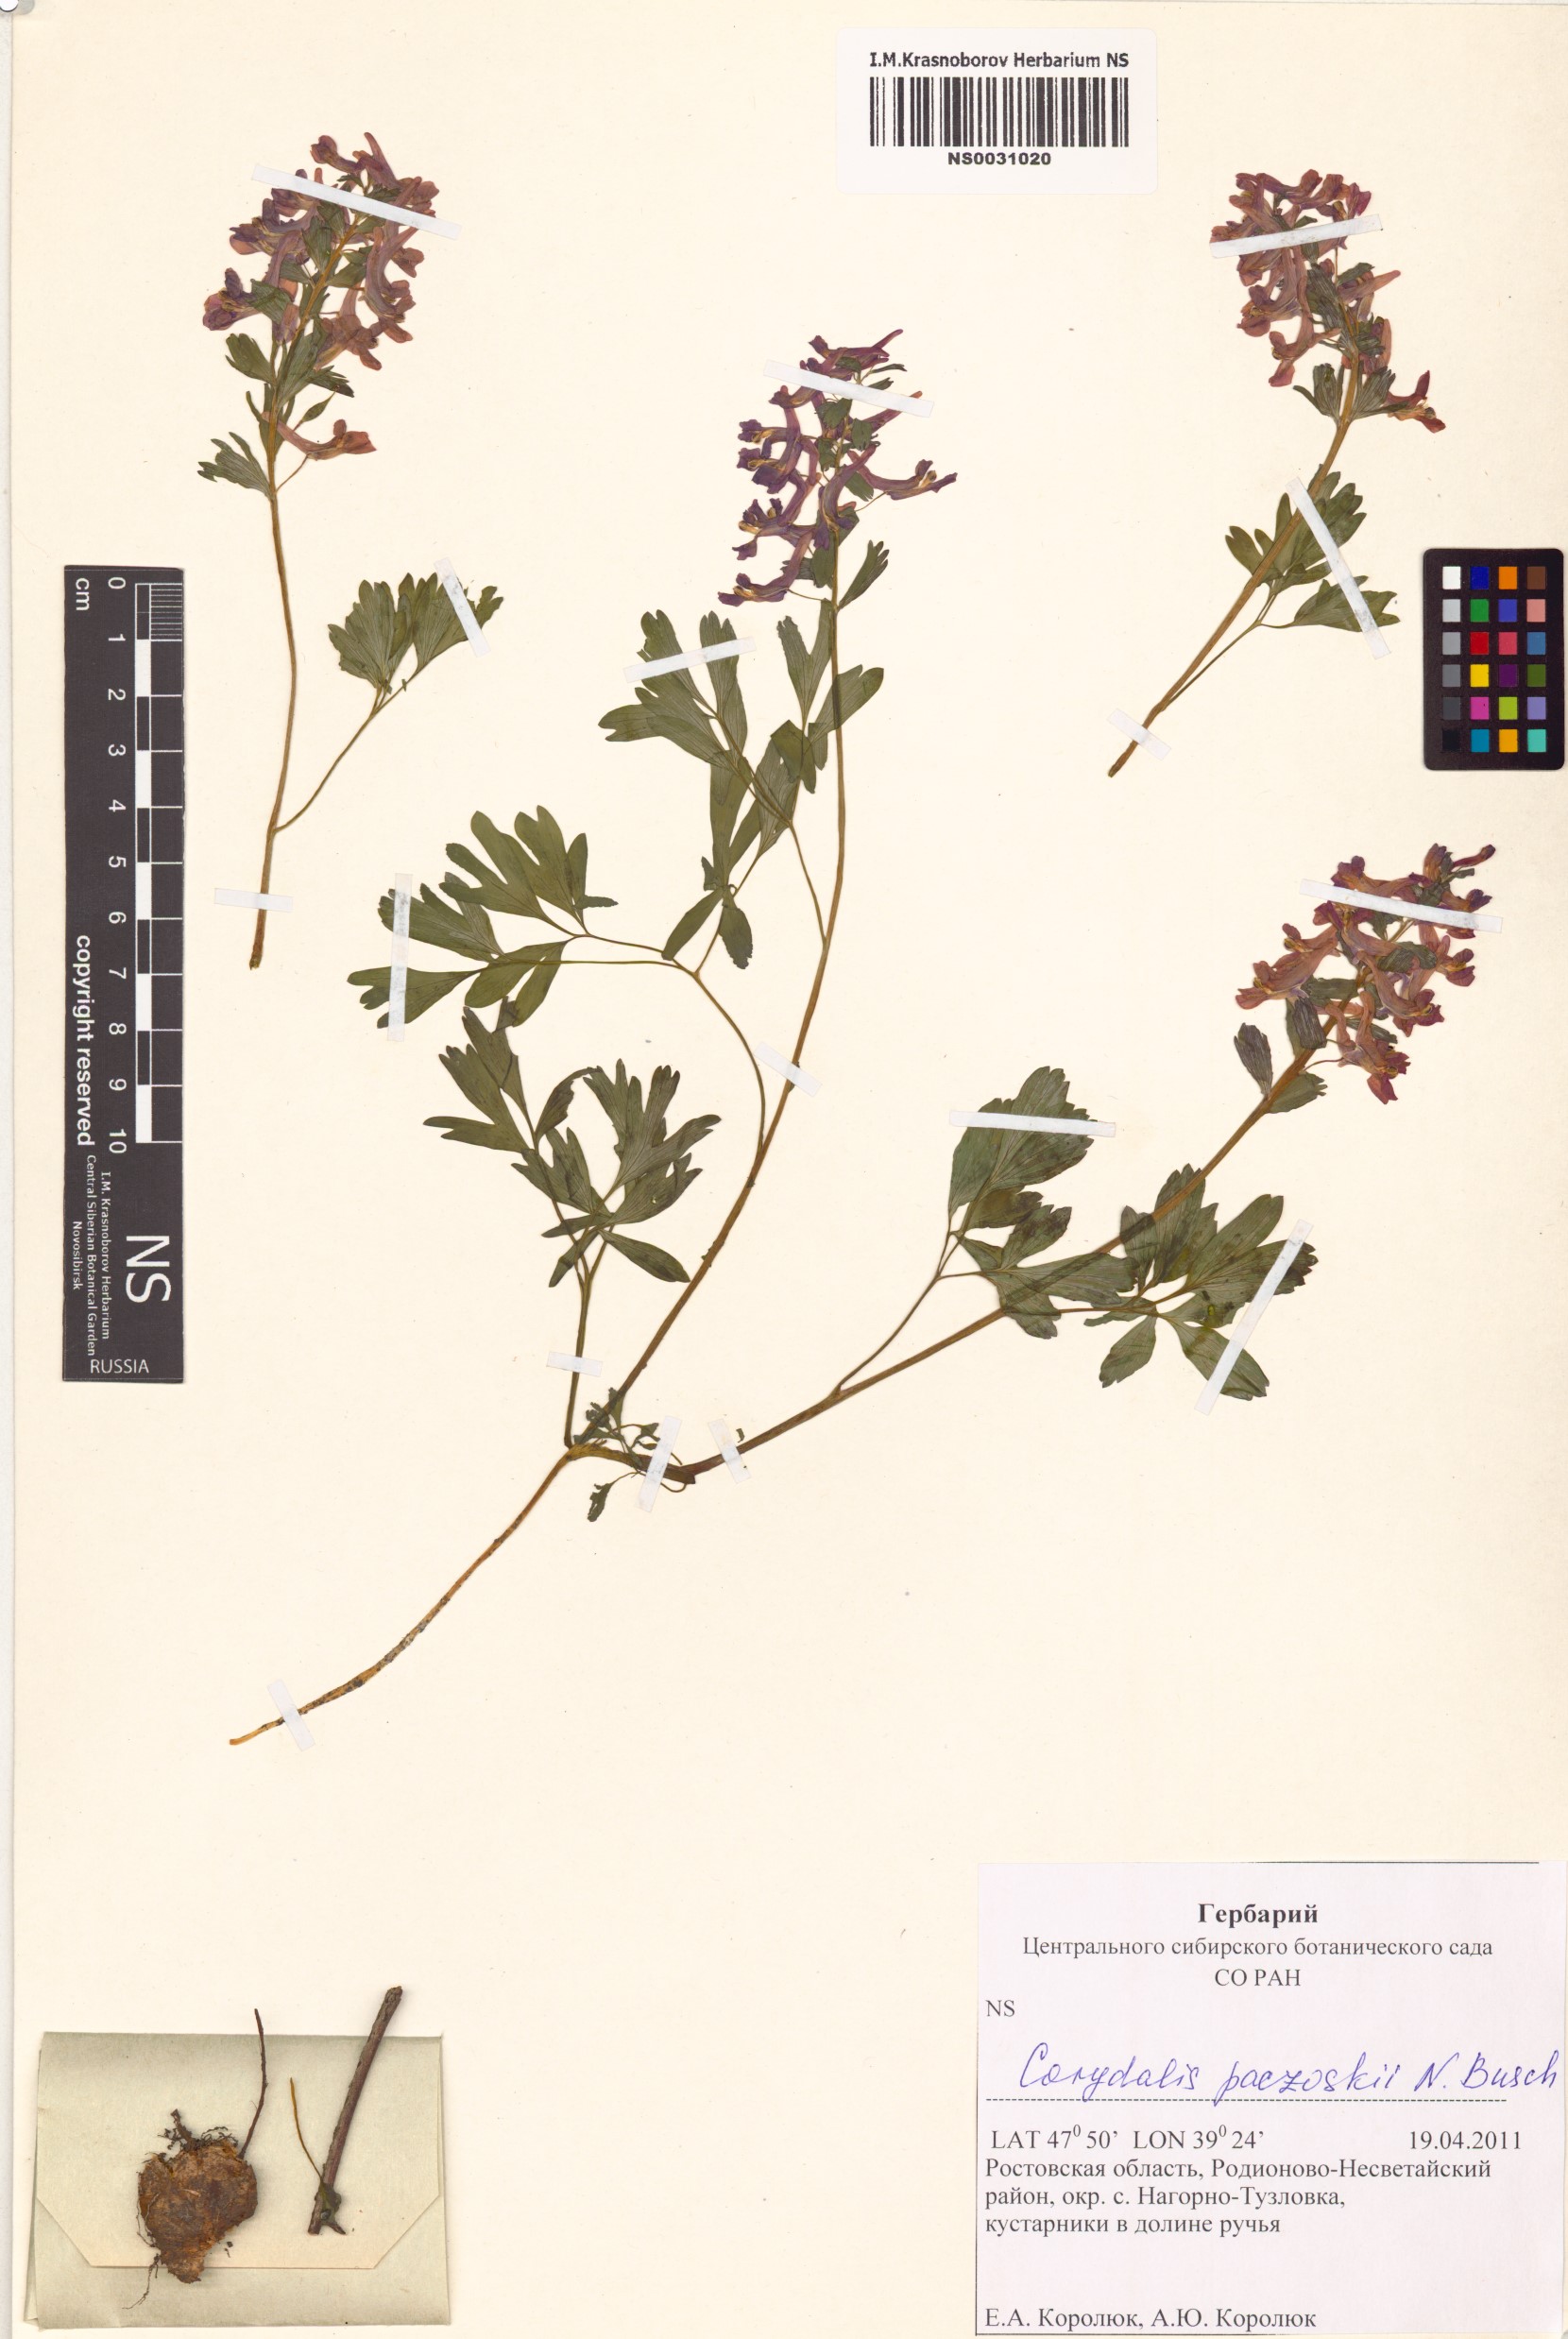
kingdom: Plantae
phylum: Tracheophyta
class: Magnoliopsida
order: Ranunculales
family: Papaveraceae
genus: Corydalis
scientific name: Corydalis paczoskii
